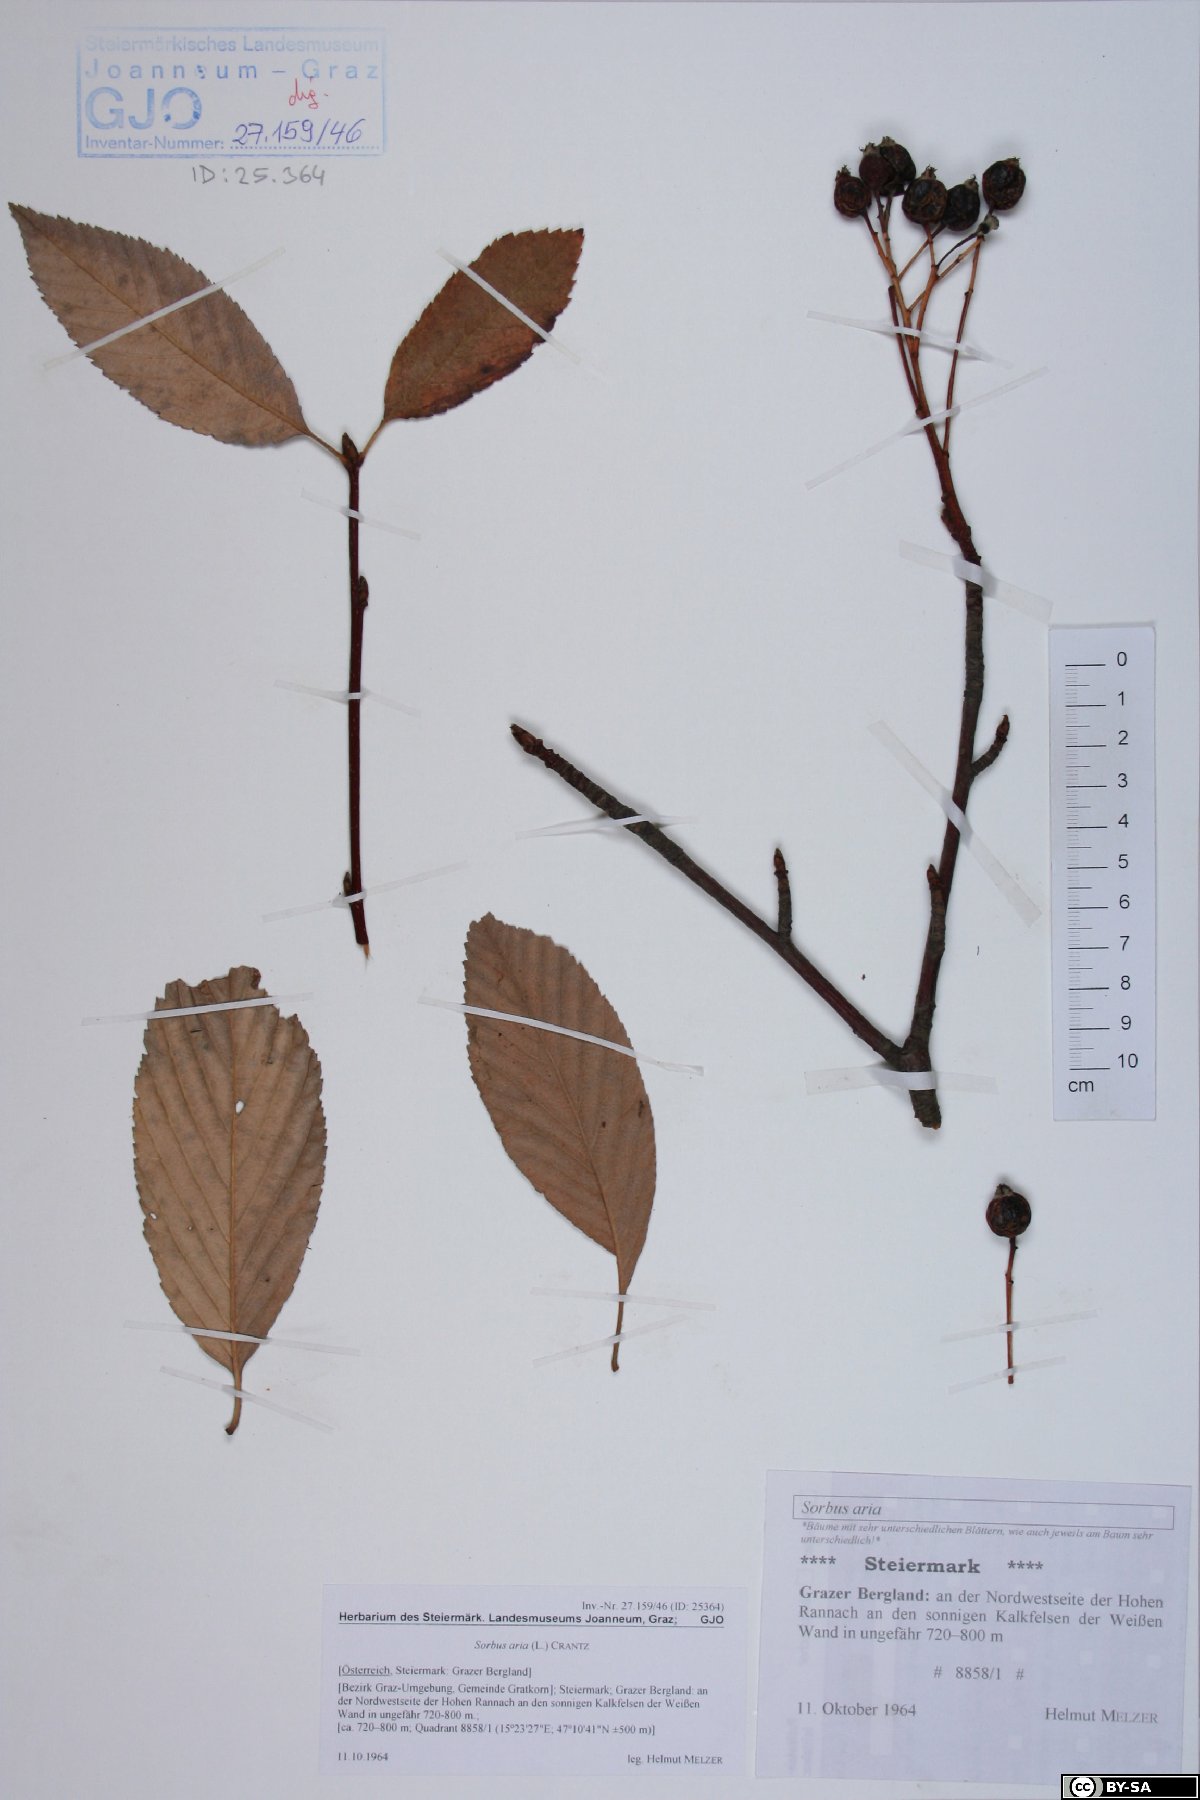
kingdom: Plantae
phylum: Tracheophyta
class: Magnoliopsida
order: Rosales
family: Rosaceae
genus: Aria
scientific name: Aria edulis
